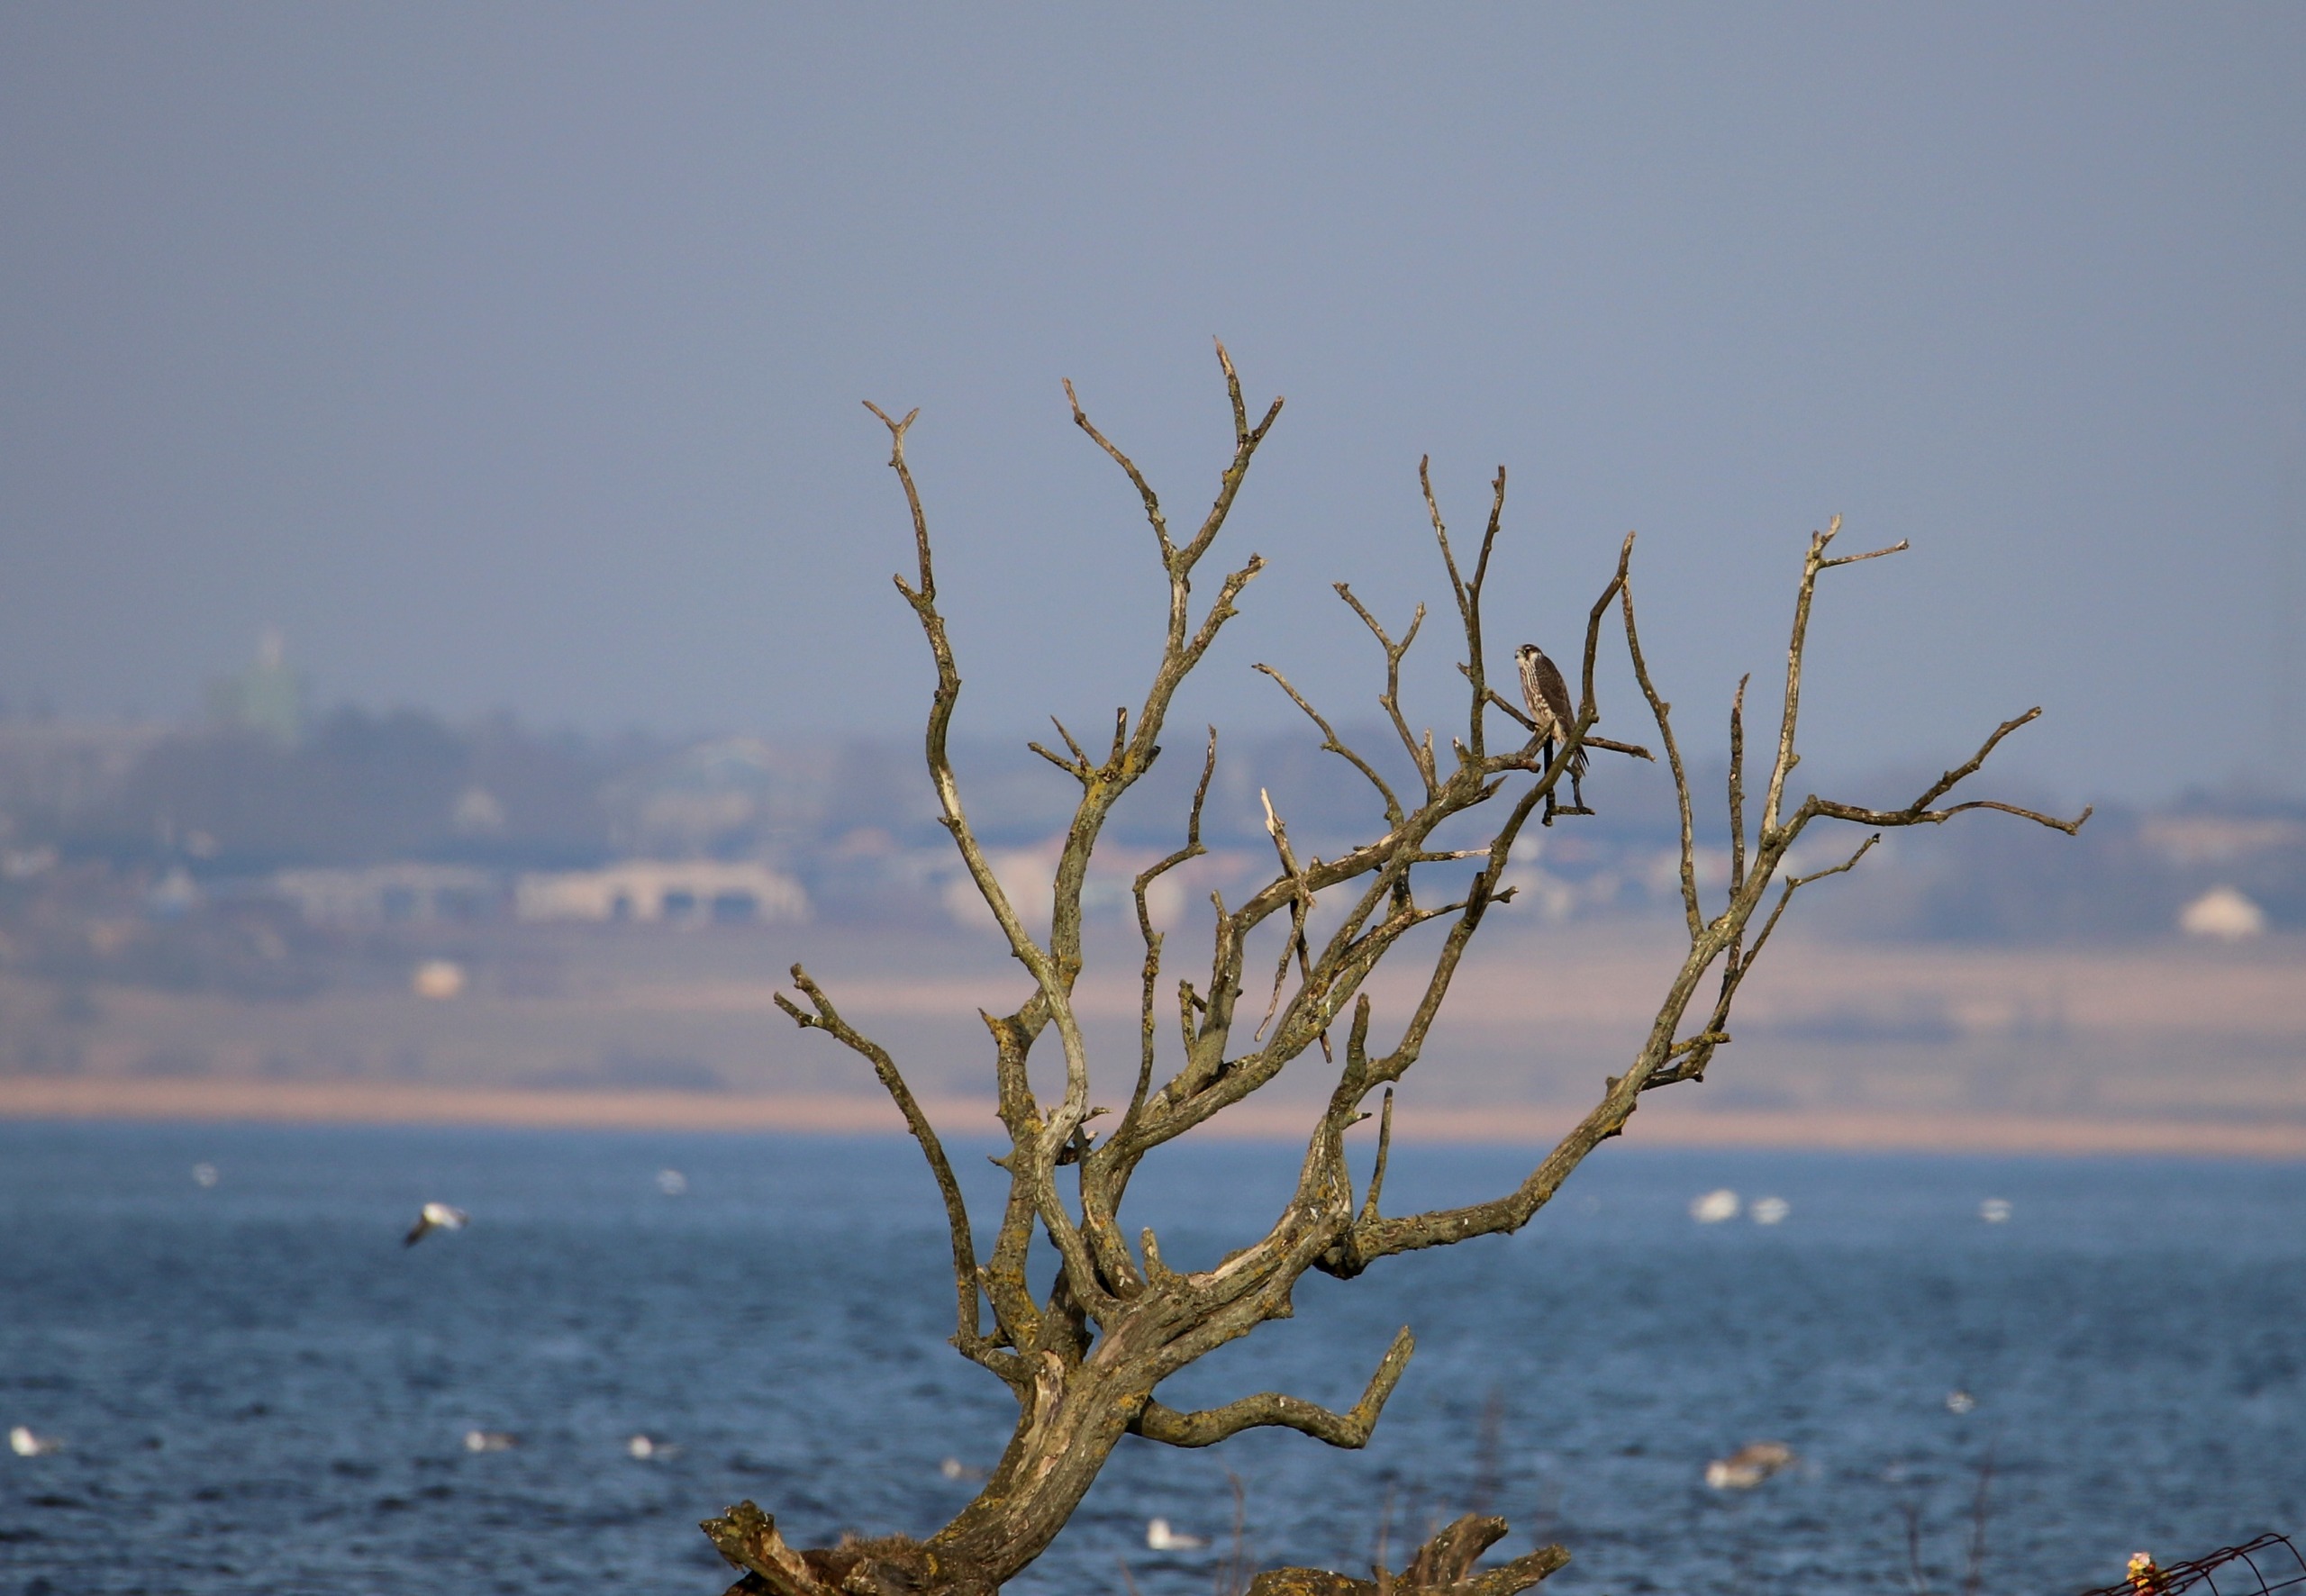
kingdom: Animalia
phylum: Chordata
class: Aves
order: Falconiformes
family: Falconidae
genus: Falco
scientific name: Falco peregrinus
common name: Vandrefalk
